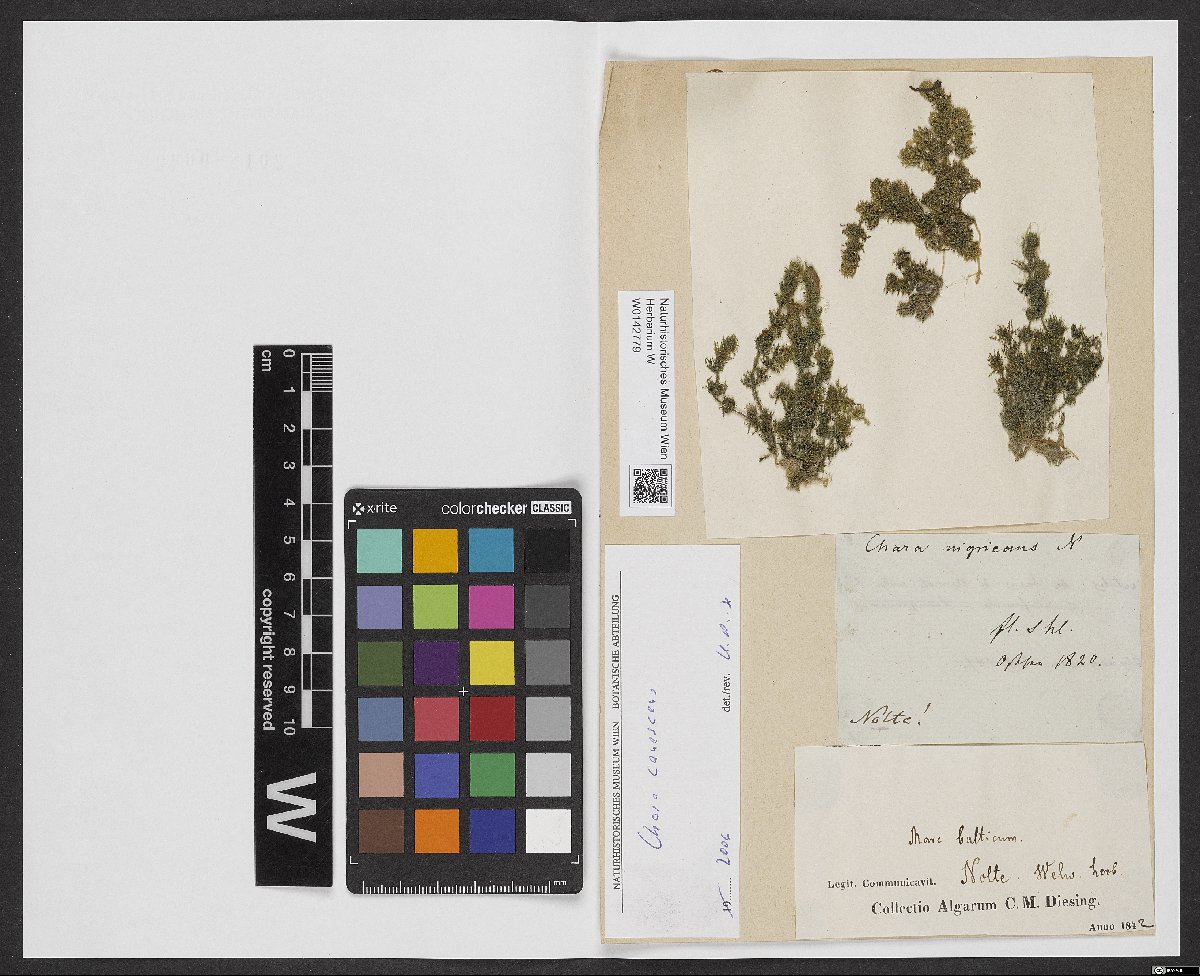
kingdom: Plantae
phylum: Charophyta
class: Charophyceae
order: Charales
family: Characeae
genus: Chara
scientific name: Chara canescens
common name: Bearded stonewort
